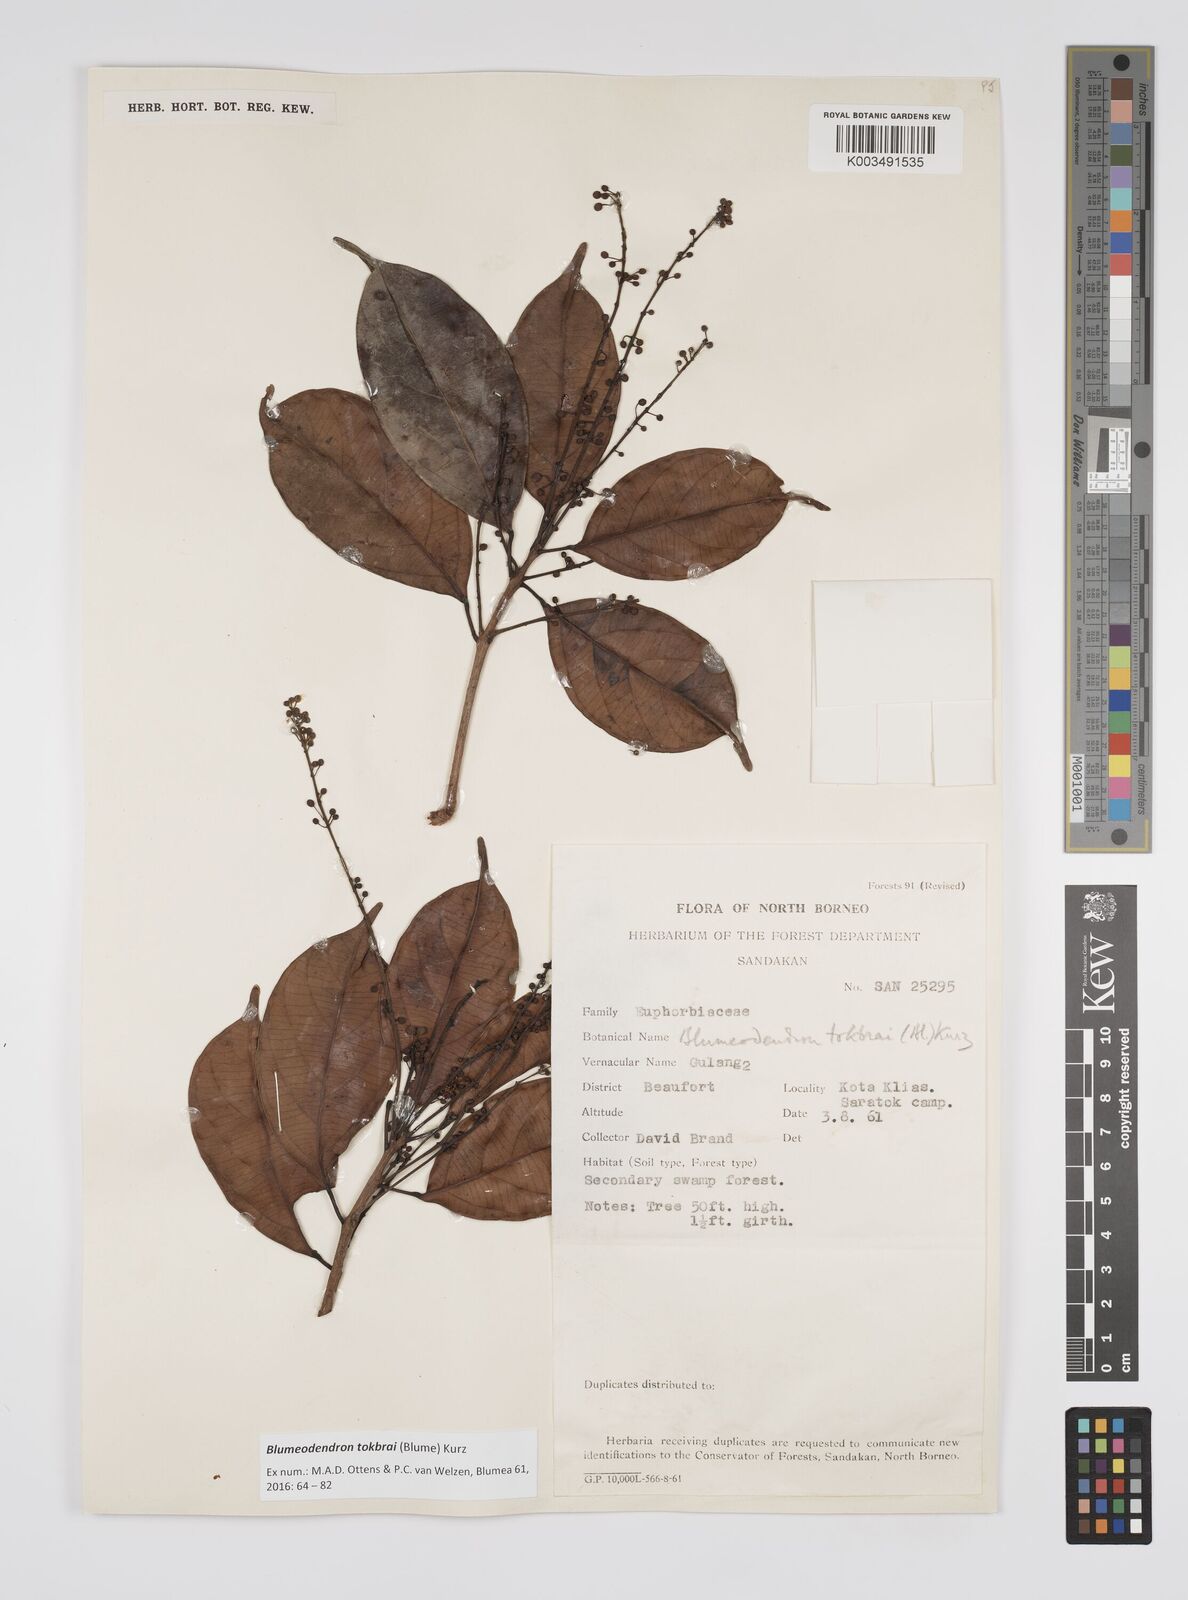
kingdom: Plantae
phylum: Tracheophyta
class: Magnoliopsida
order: Malpighiales
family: Euphorbiaceae
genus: Blumeodendron
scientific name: Blumeodendron tokbrai
